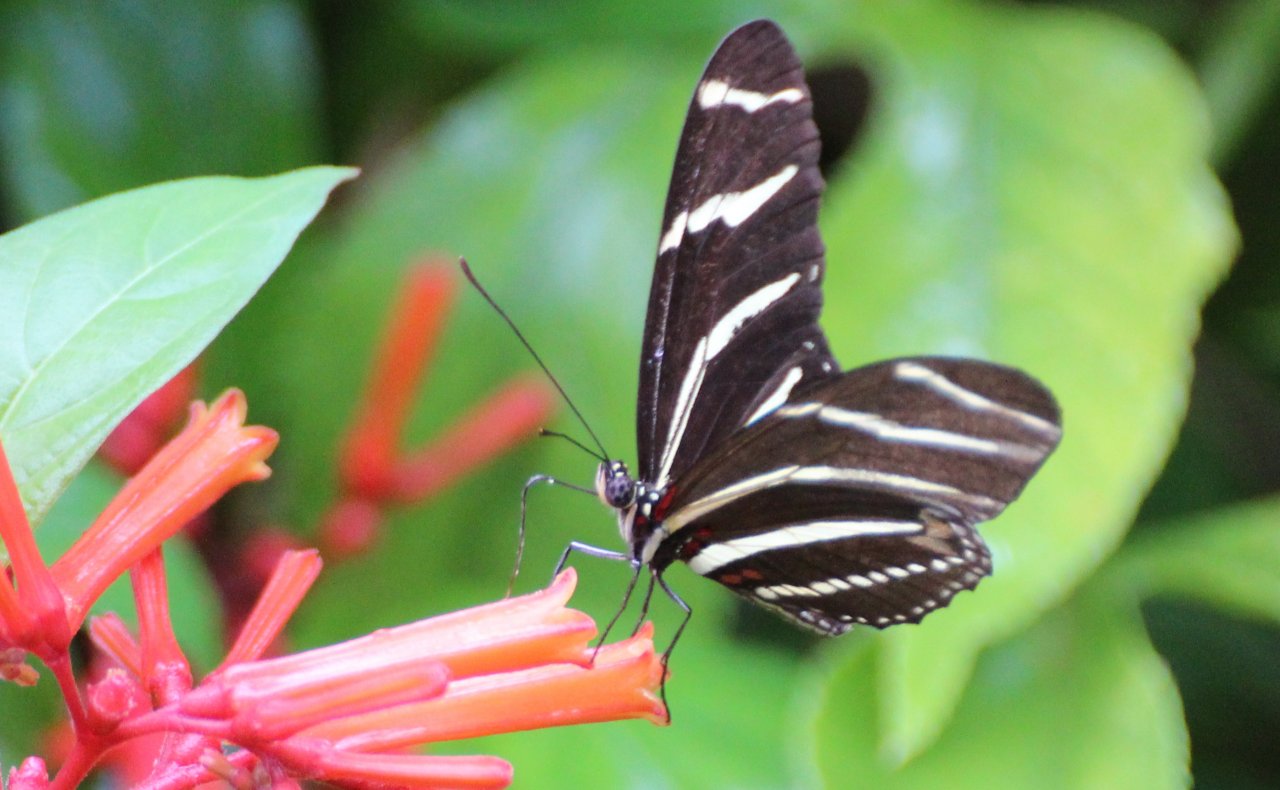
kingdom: Animalia
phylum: Arthropoda
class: Insecta
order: Lepidoptera
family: Nymphalidae
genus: Heliconius
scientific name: Heliconius charithonia
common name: Zebra Longwing
